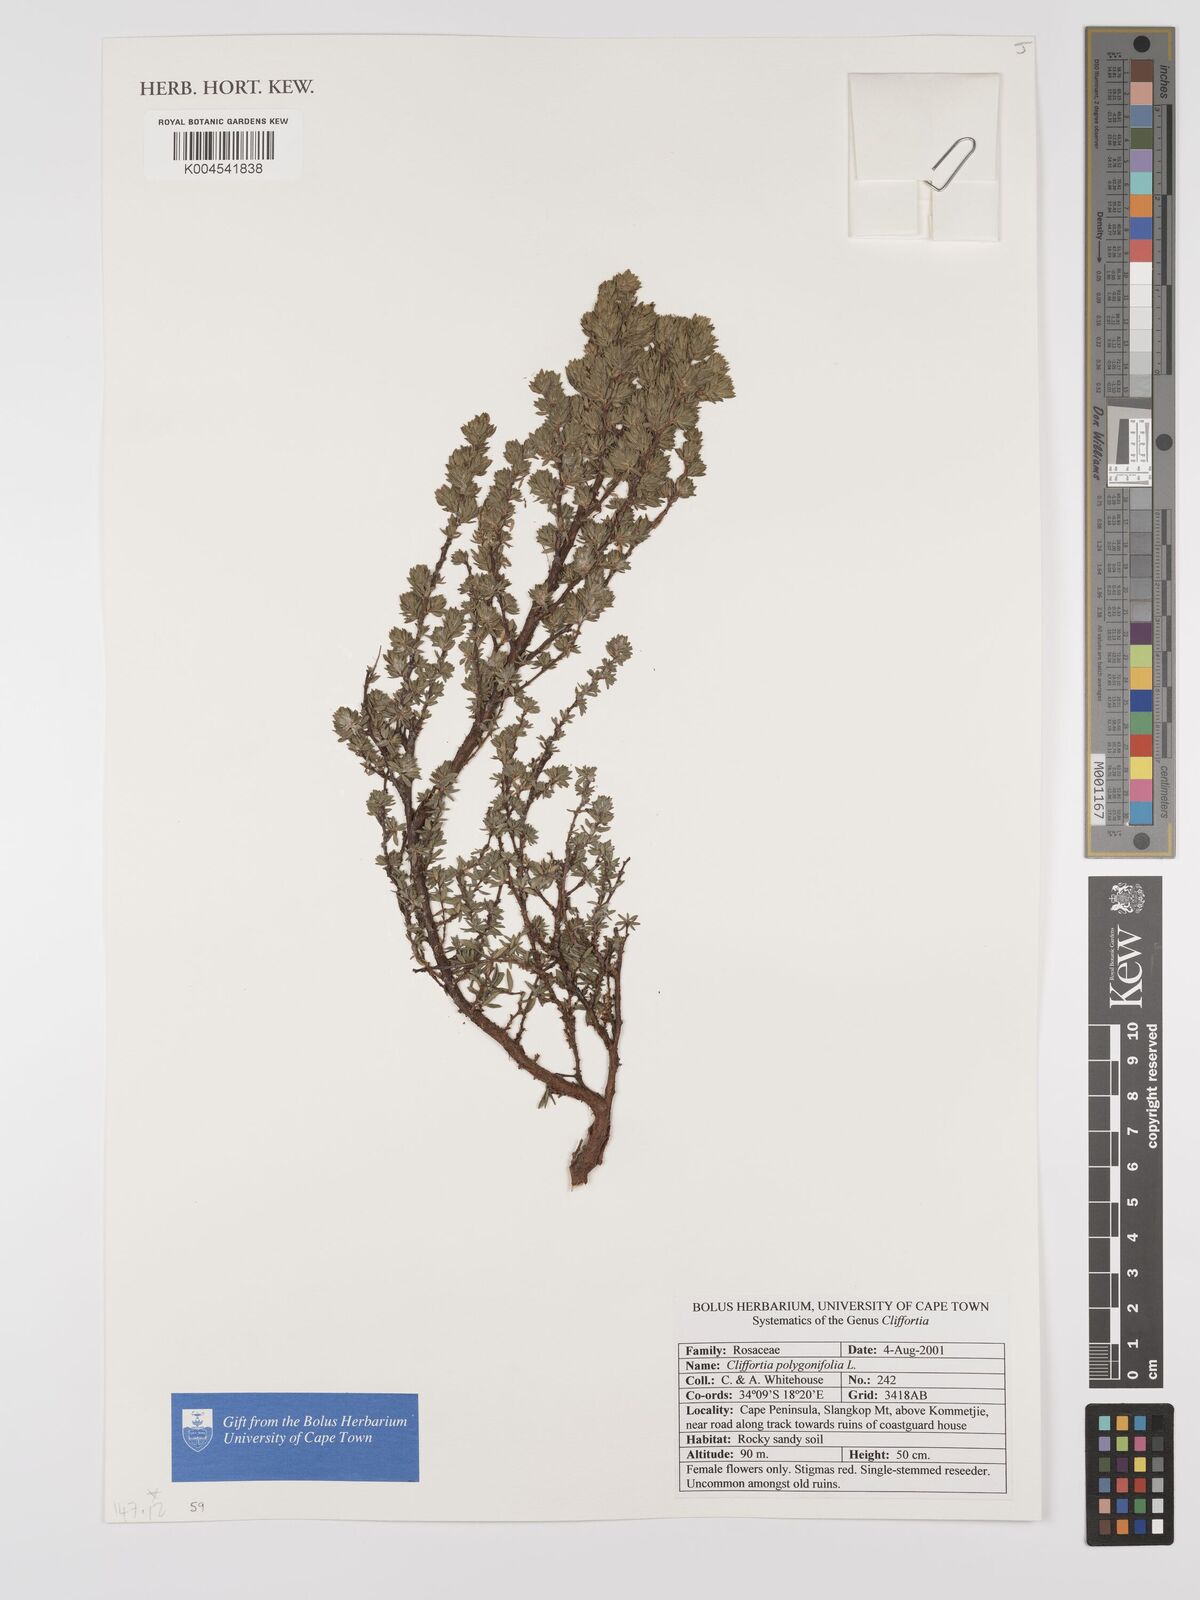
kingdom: Plantae
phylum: Tracheophyta
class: Magnoliopsida
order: Rosales
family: Rosaceae
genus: Cliffortia
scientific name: Cliffortia polygonifolia
